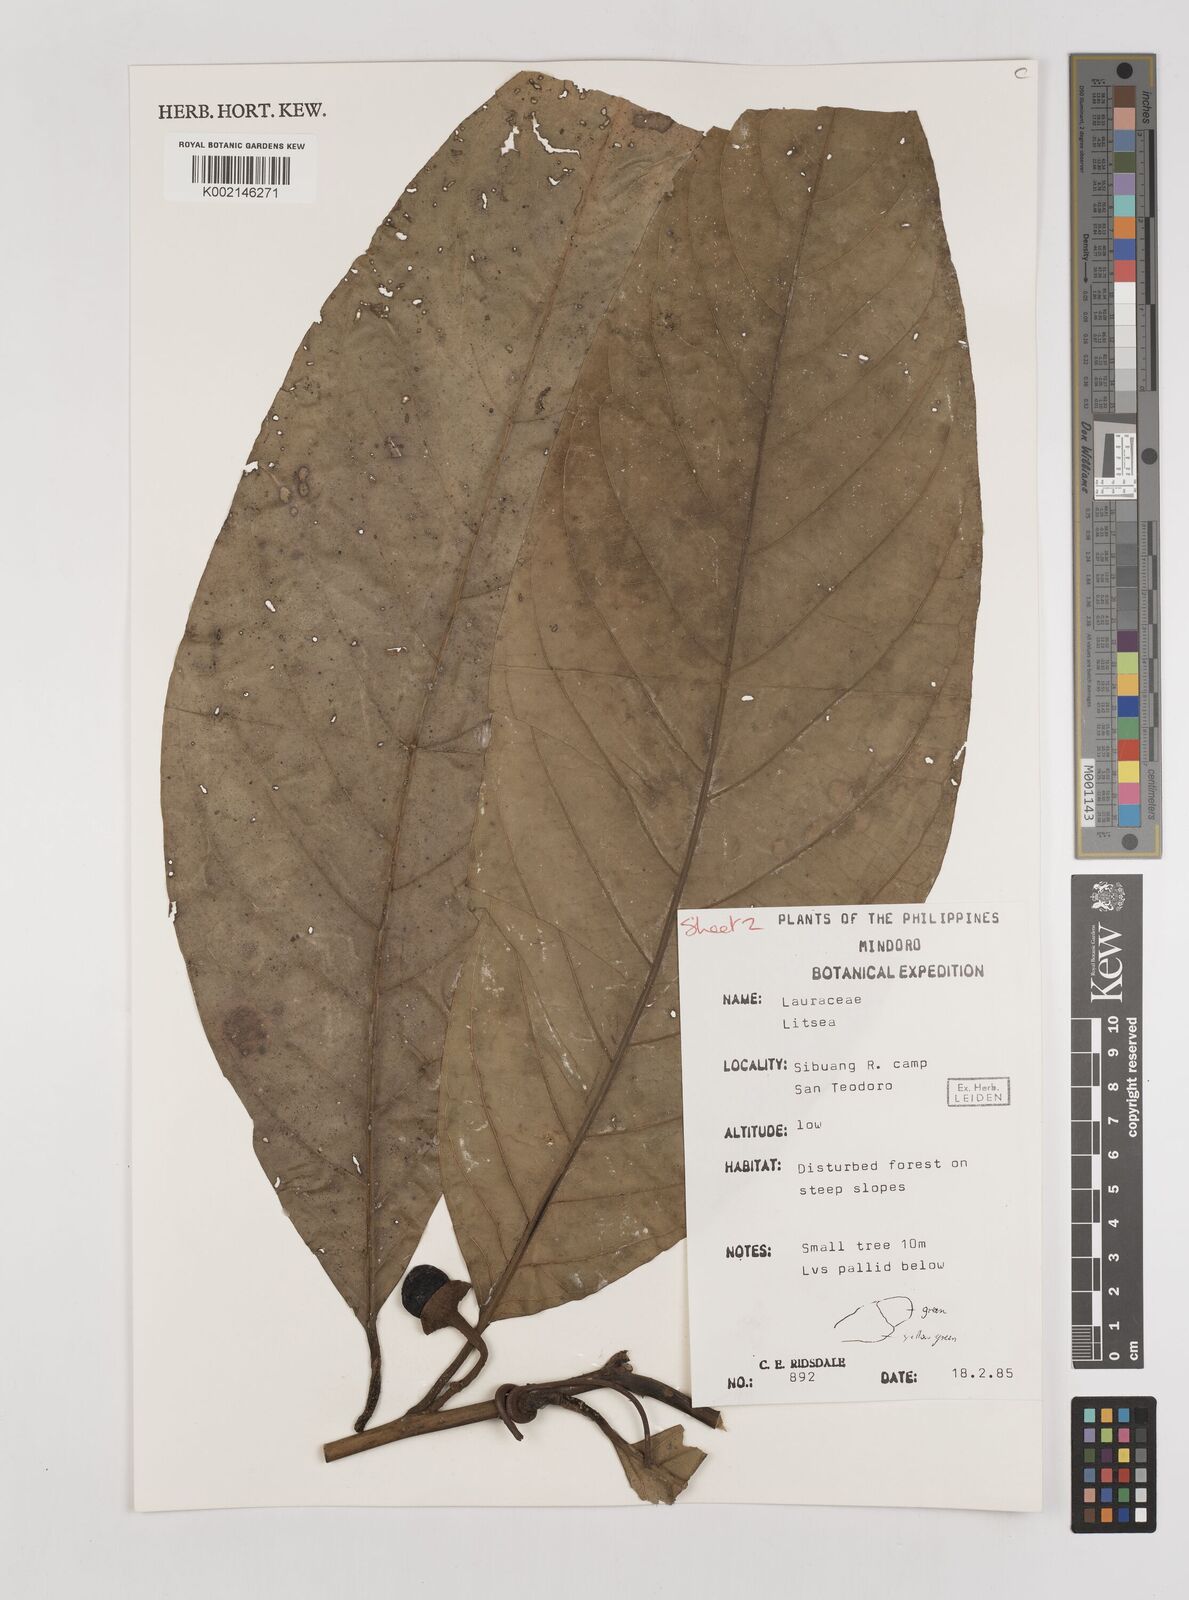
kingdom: Plantae
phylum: Tracheophyta
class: Magnoliopsida
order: Laurales
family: Lauraceae
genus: Litsea
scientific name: Litsea
